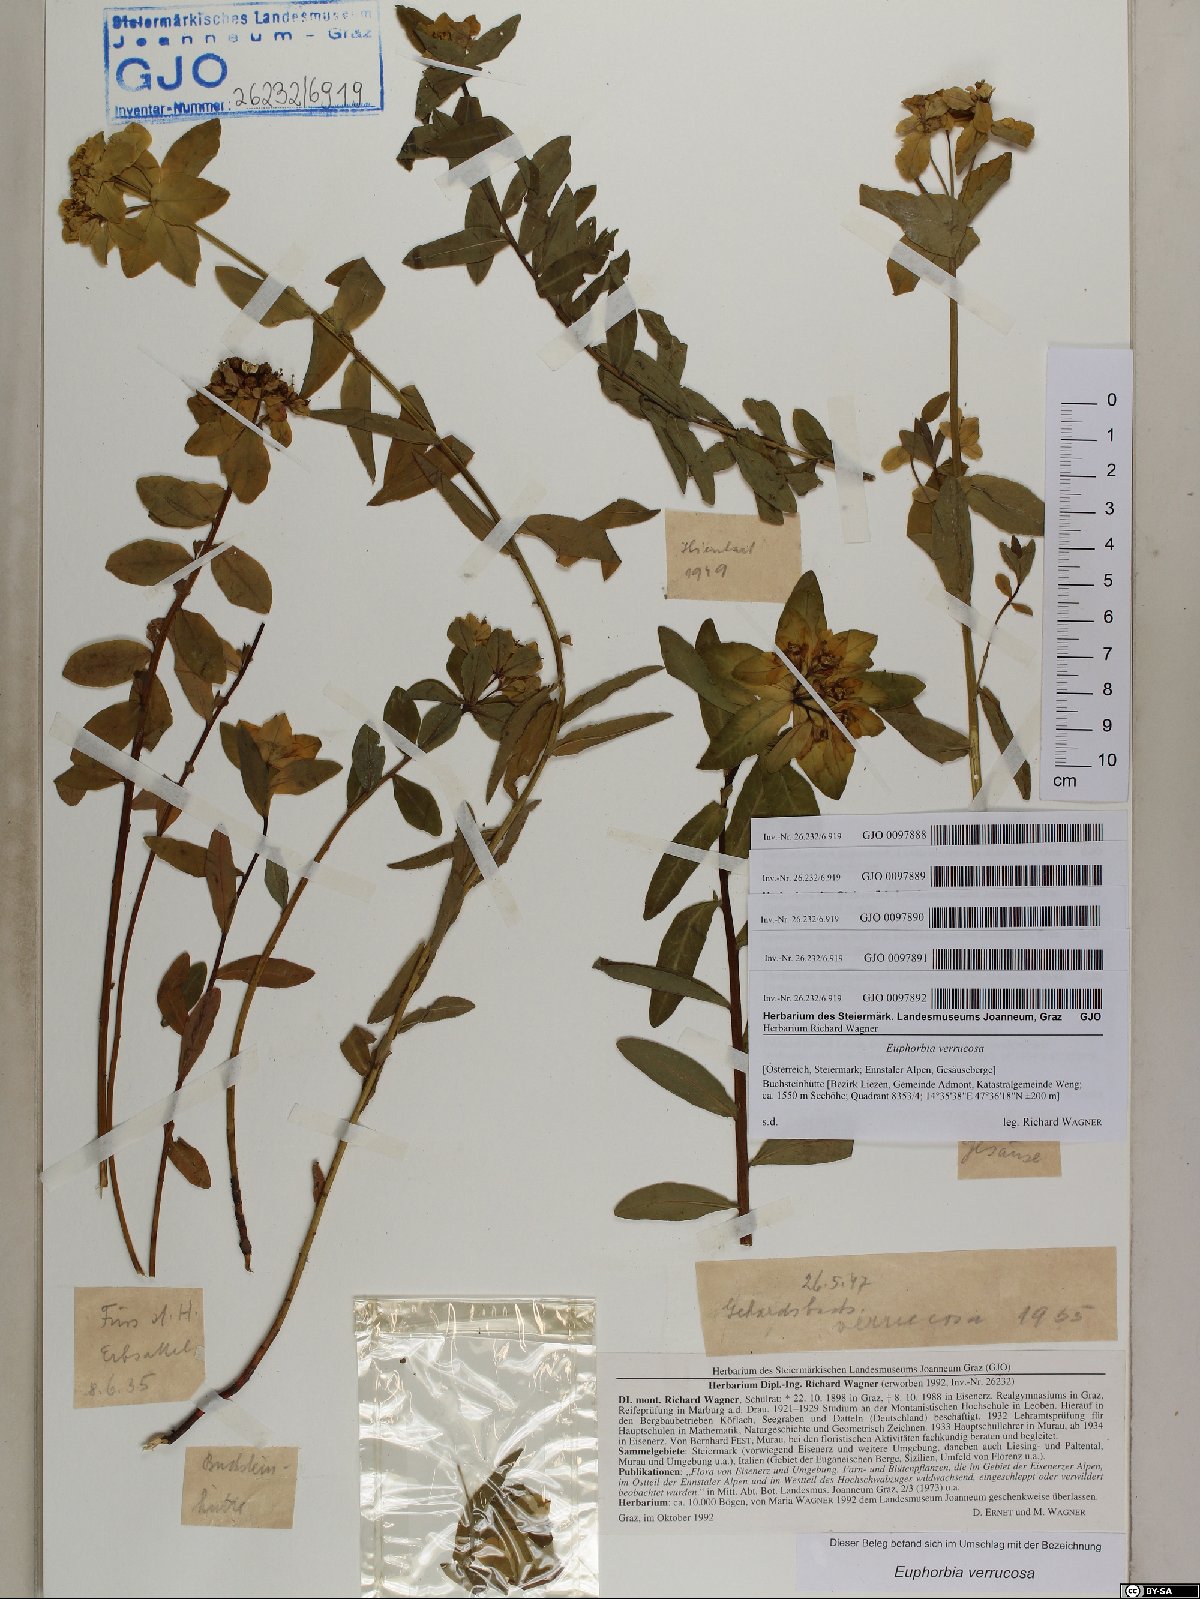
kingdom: Plantae
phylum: Tracheophyta
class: Magnoliopsida
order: Malpighiales
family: Euphorbiaceae
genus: Euphorbia
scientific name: Euphorbia verrucosa
